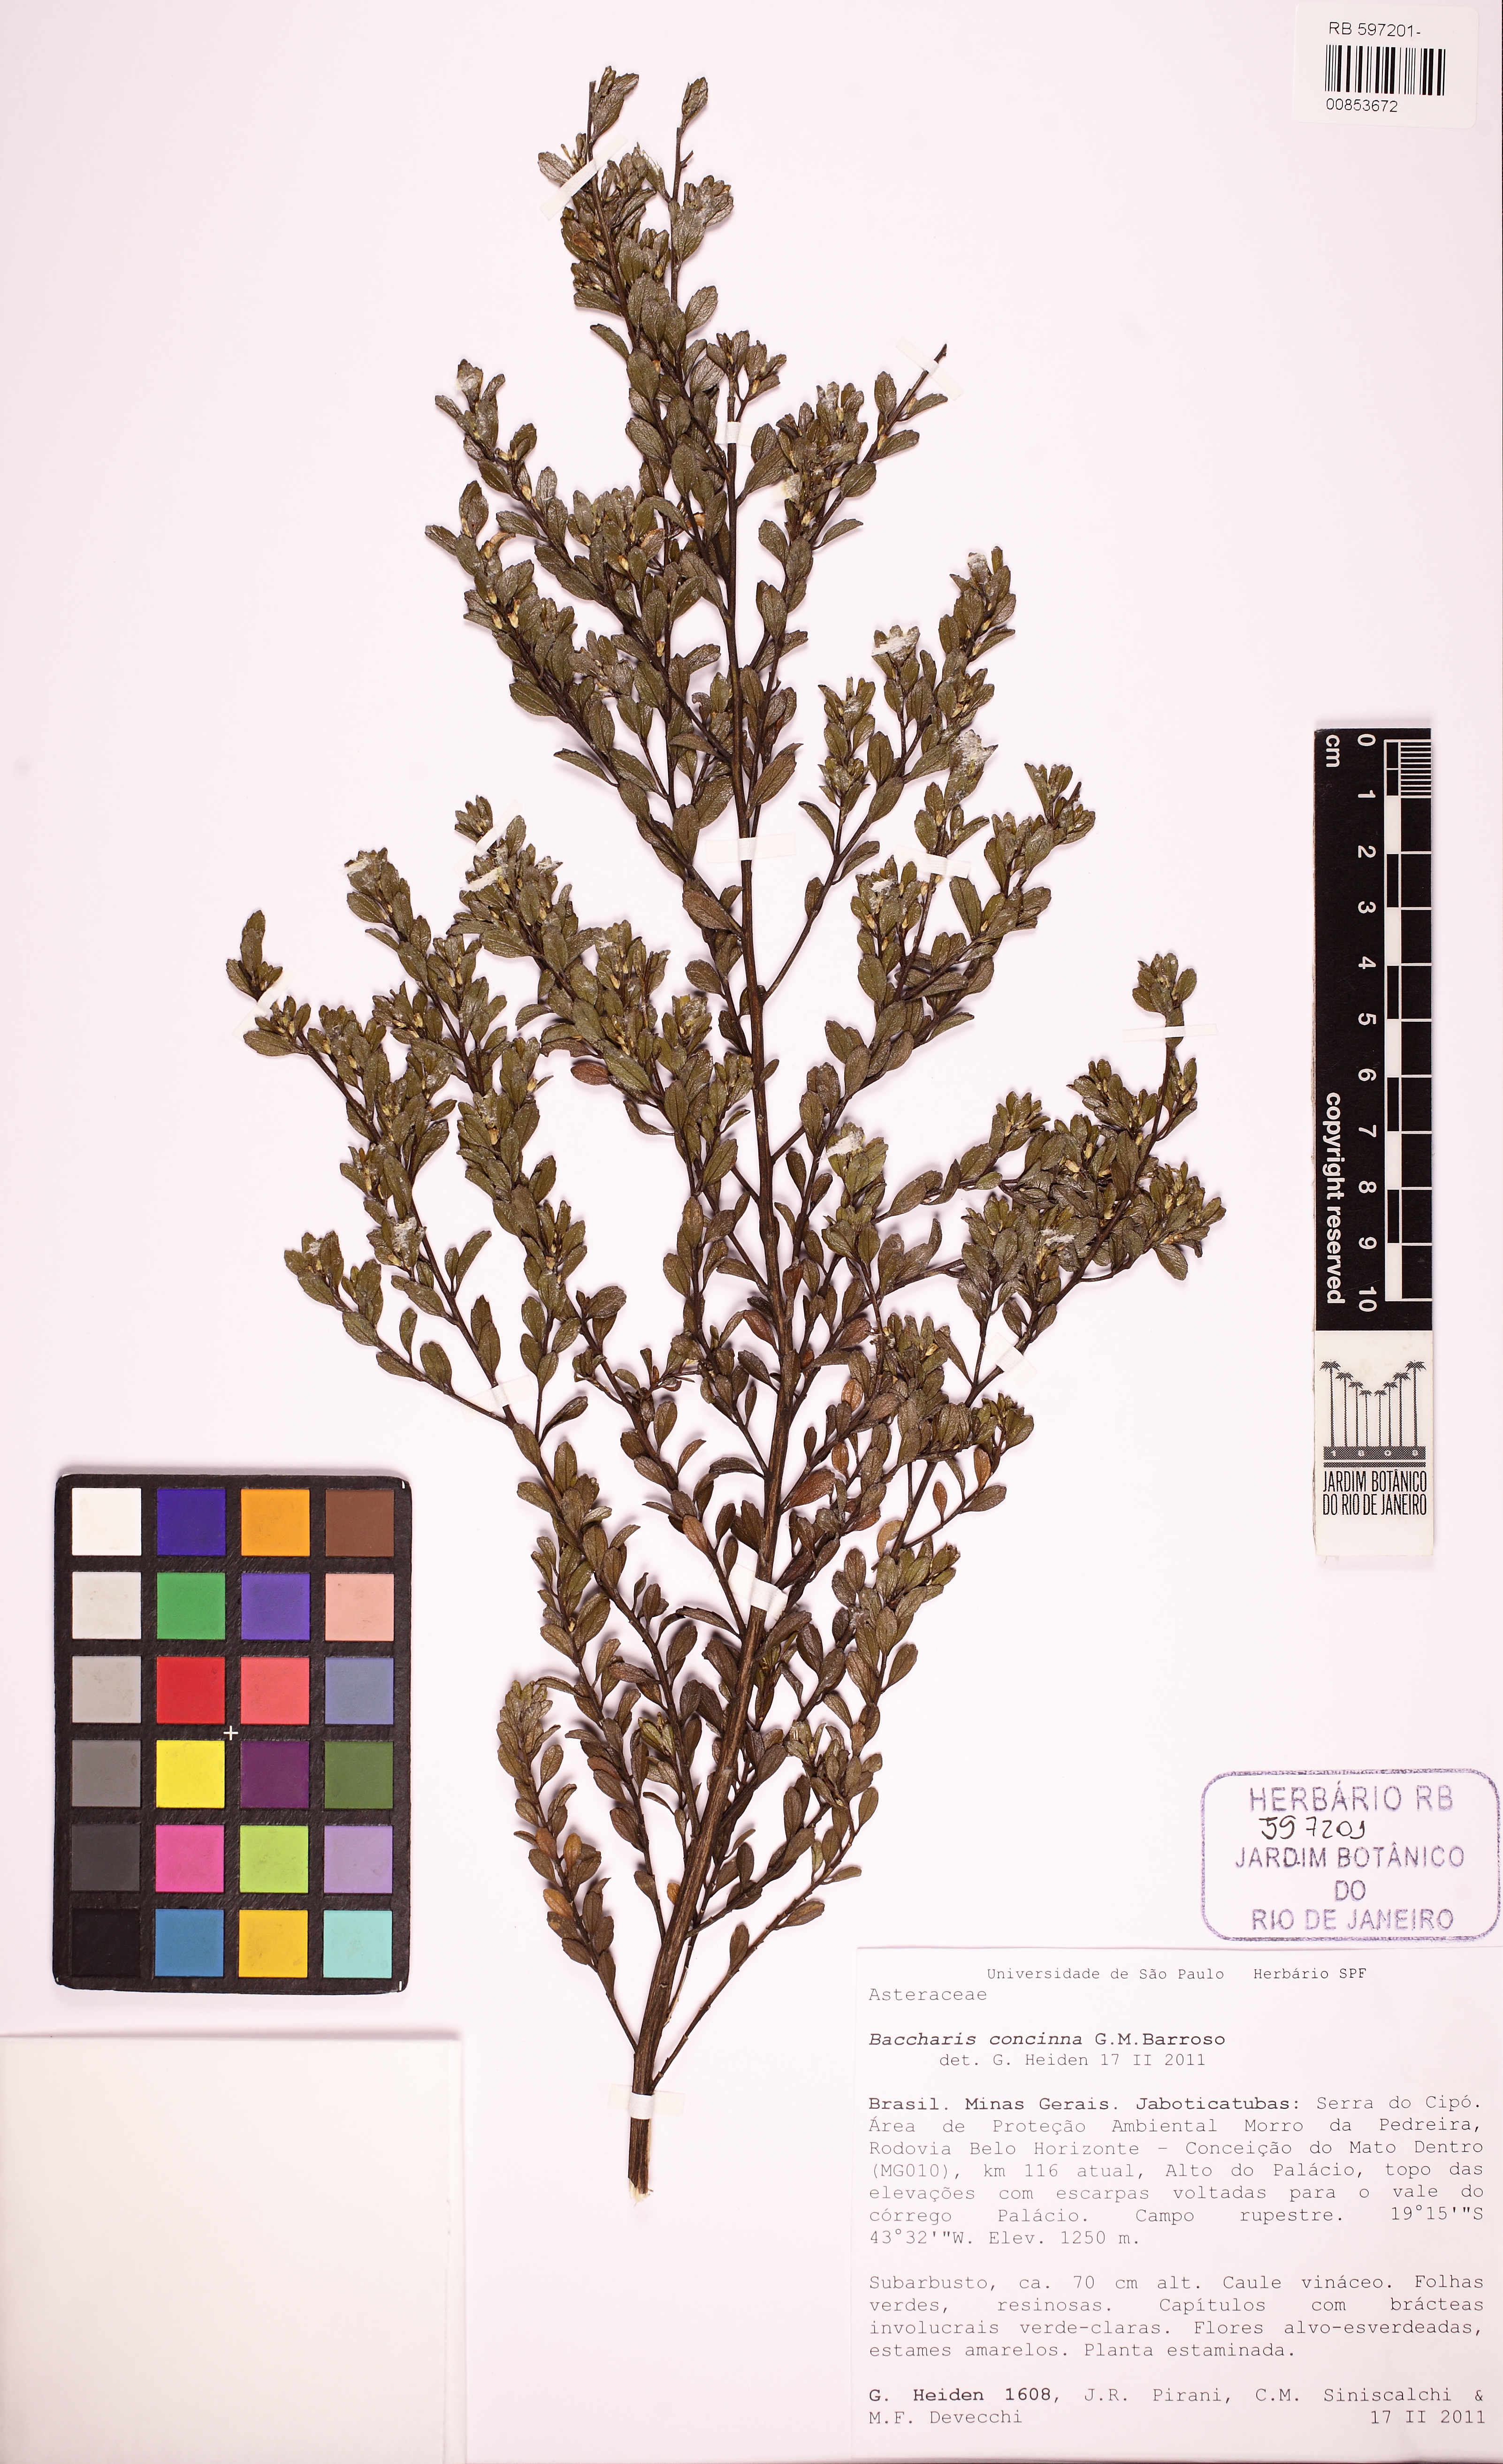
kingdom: Plantae
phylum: Tracheophyta
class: Magnoliopsida
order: Asterales
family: Asteraceae
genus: Baccharis
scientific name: Baccharis concinna
